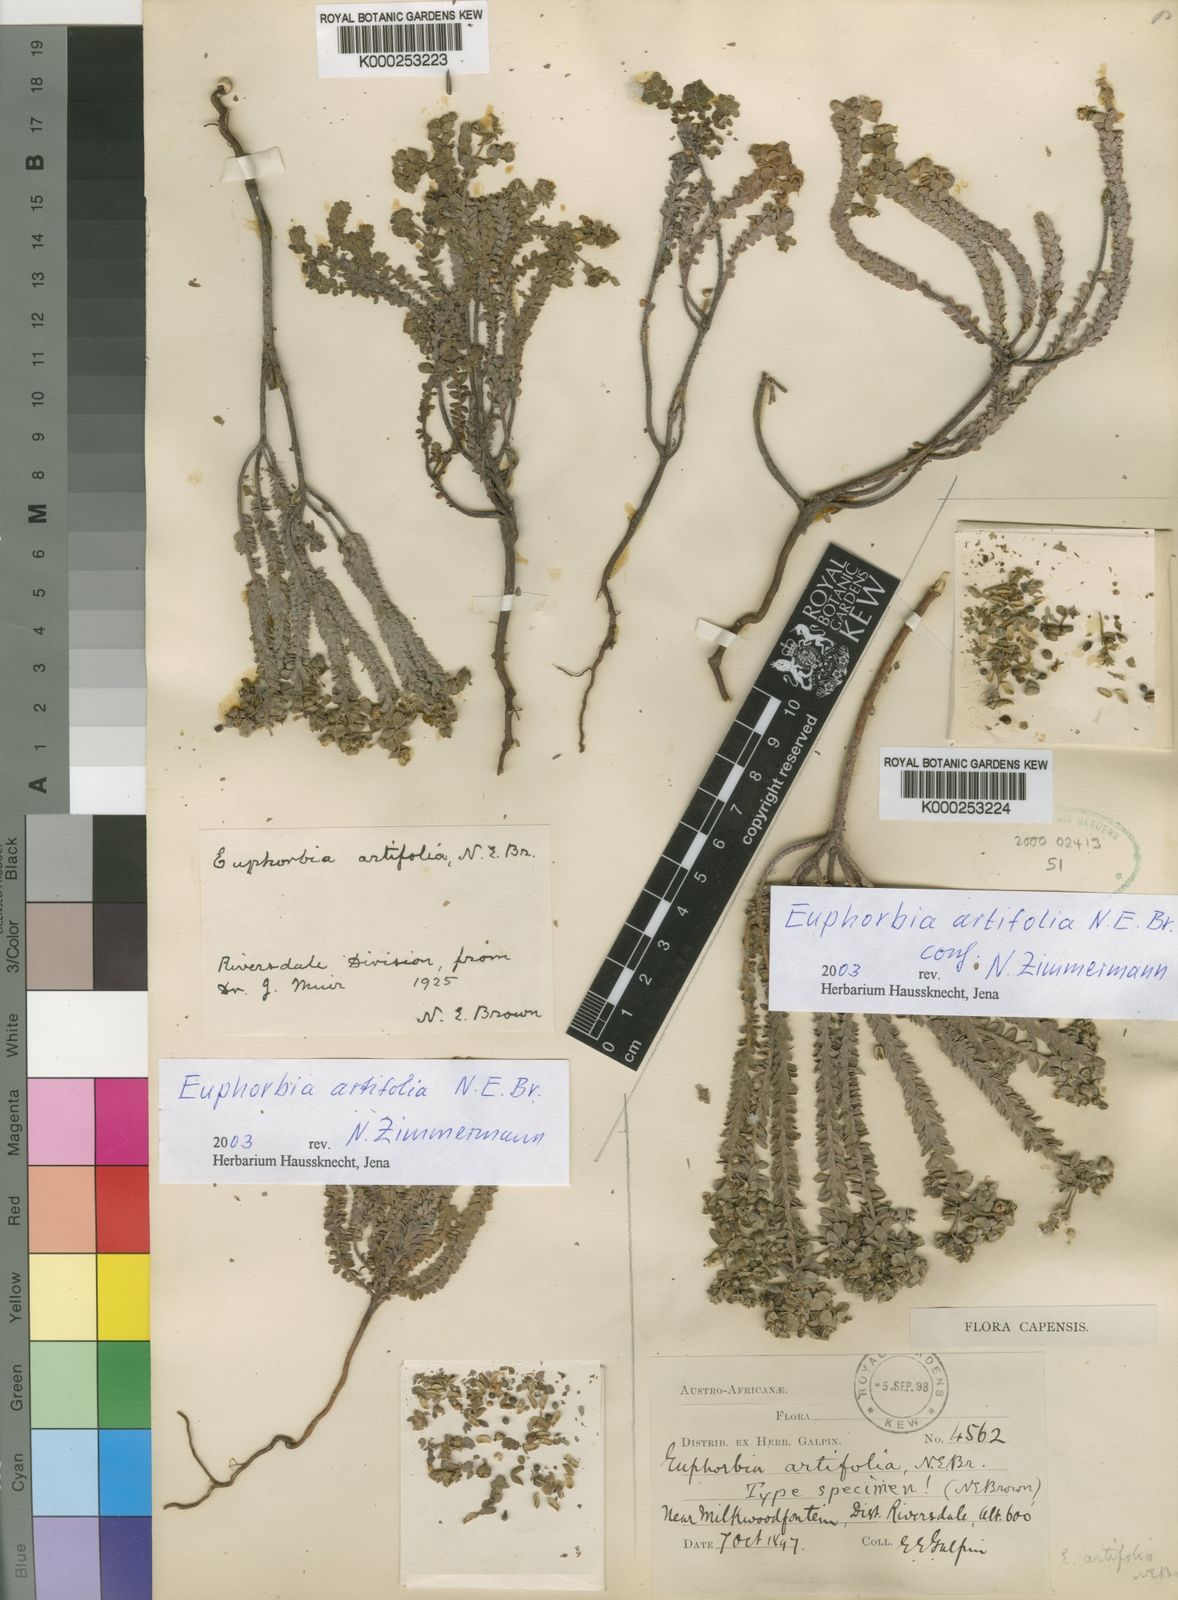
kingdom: Plantae
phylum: Tracheophyta
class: Magnoliopsida
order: Malpighiales
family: Euphorbiaceae
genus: Euphorbia
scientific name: Euphorbia foliosa
